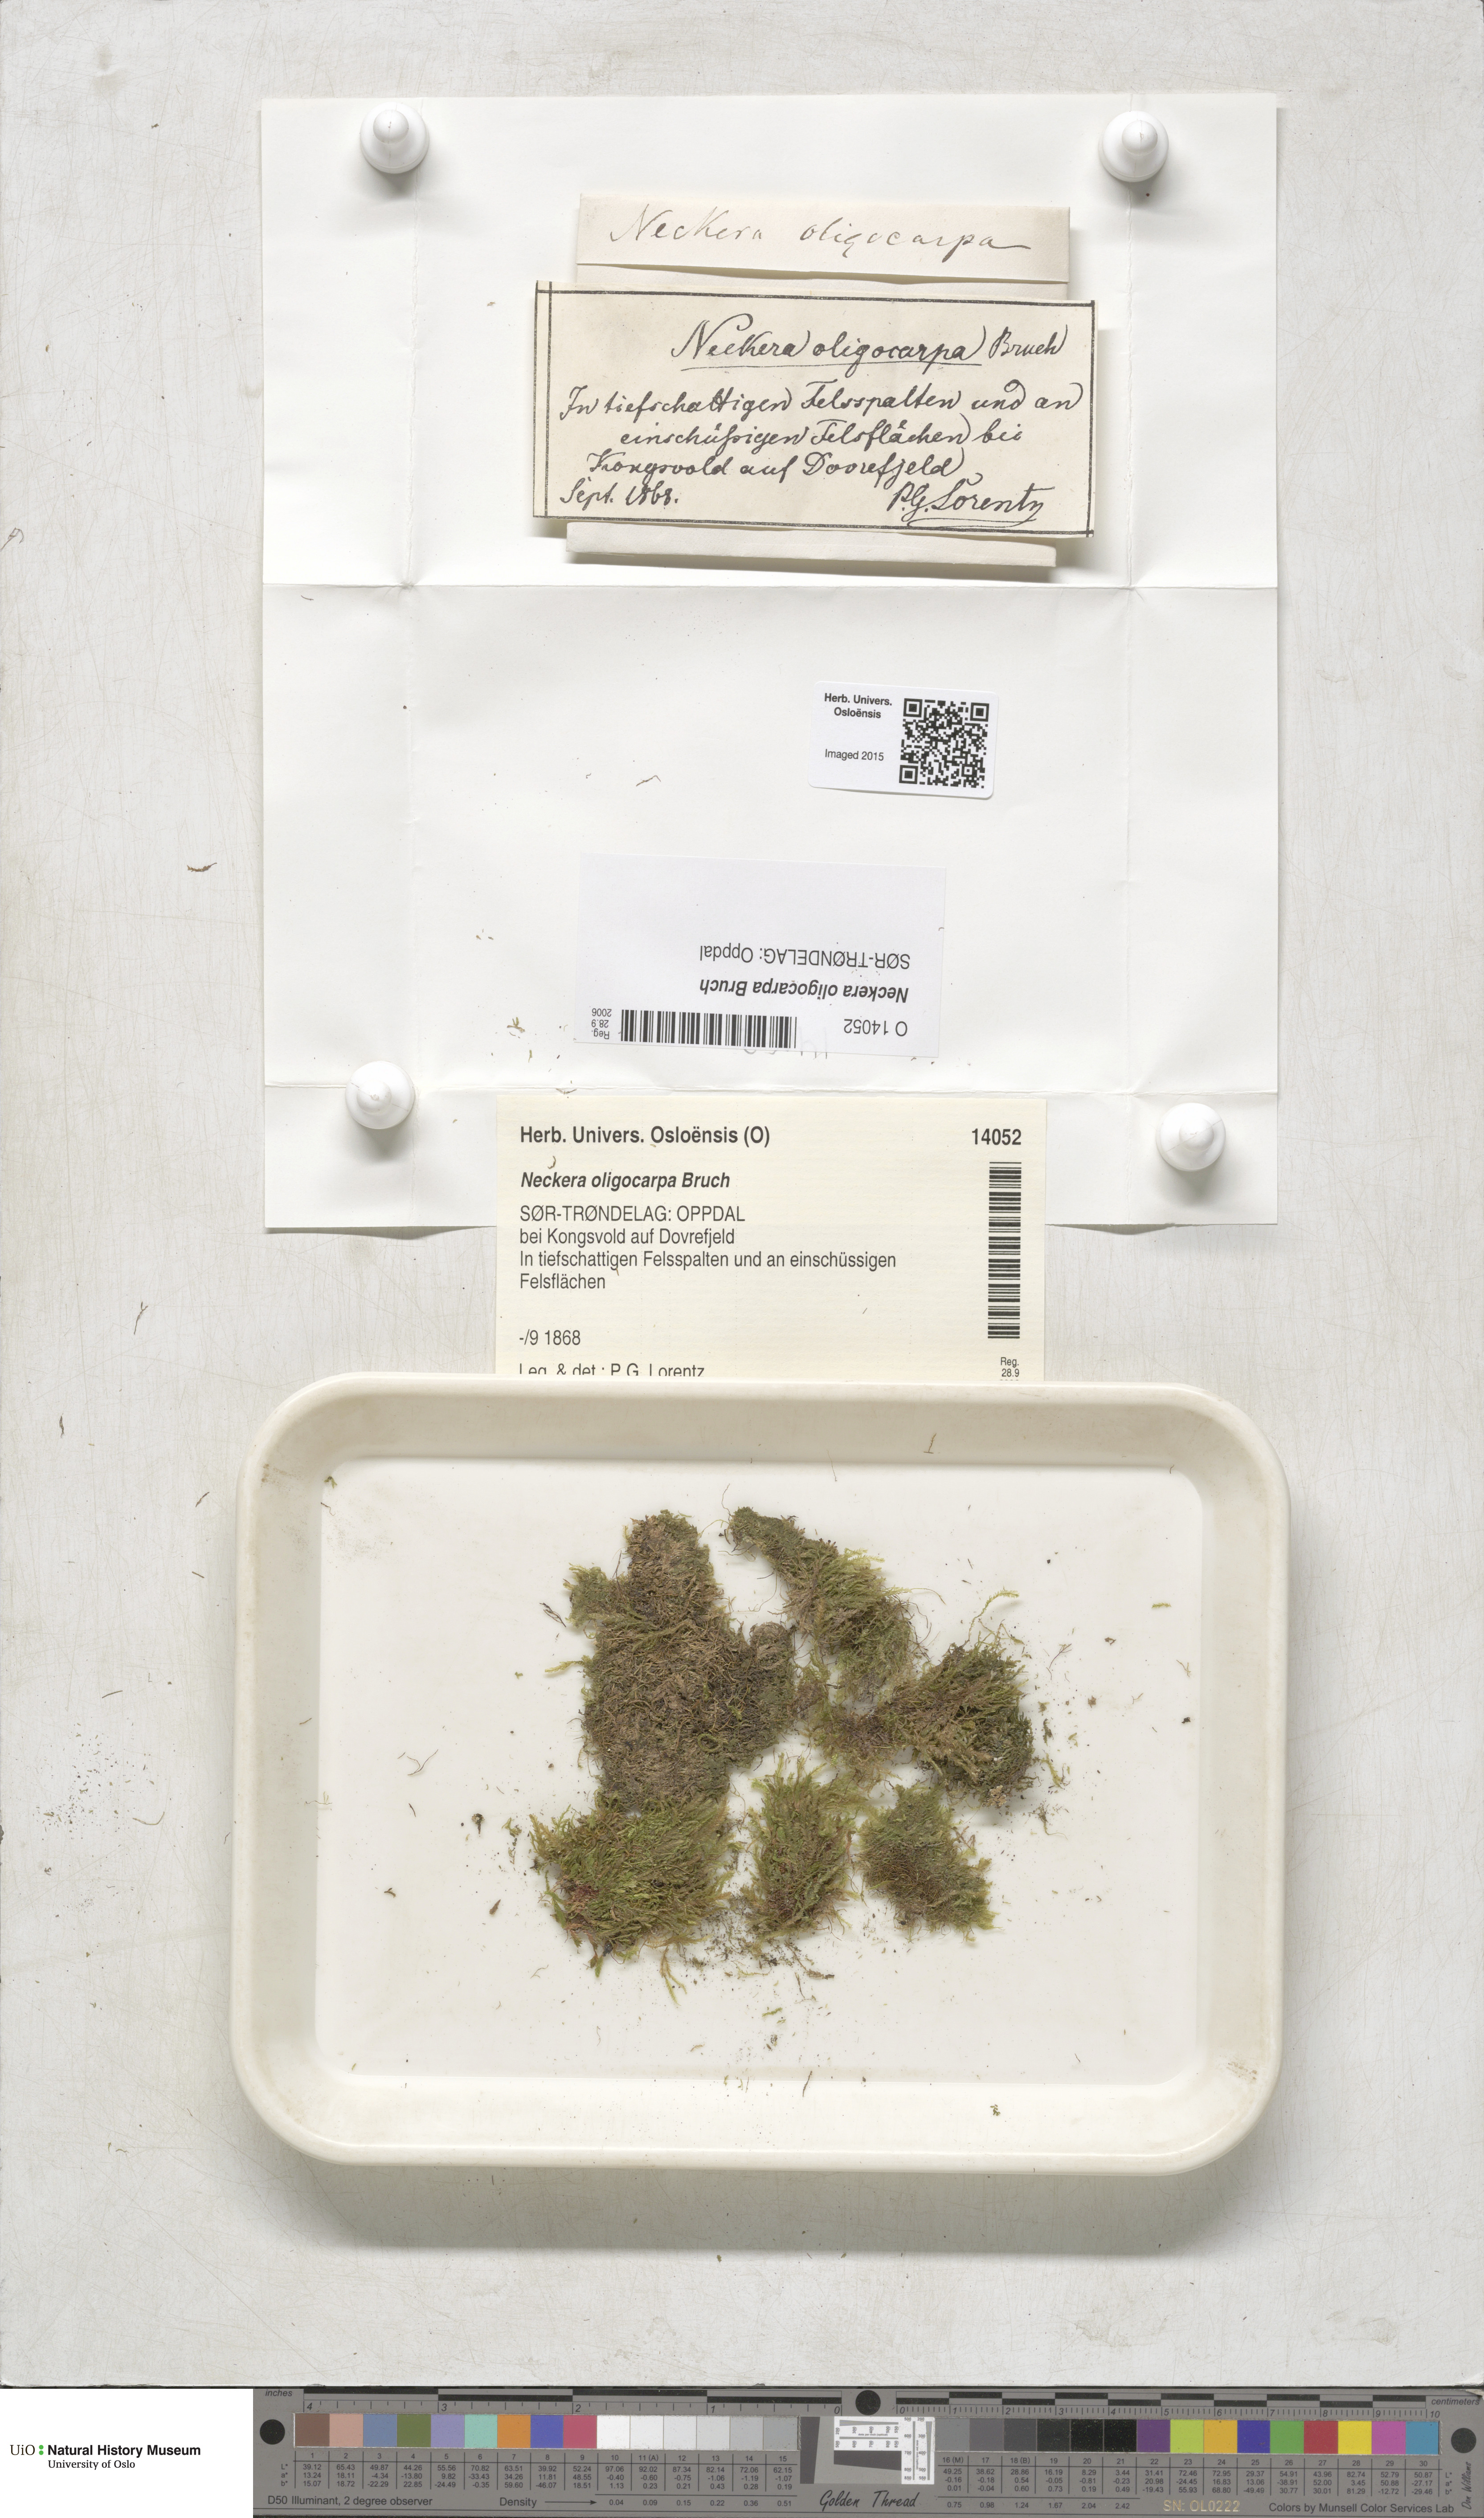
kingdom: Plantae
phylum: Bryophyta
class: Bryopsida
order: Hypnales
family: Neckeraceae
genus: Neckera
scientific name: Neckera oligocarpa
